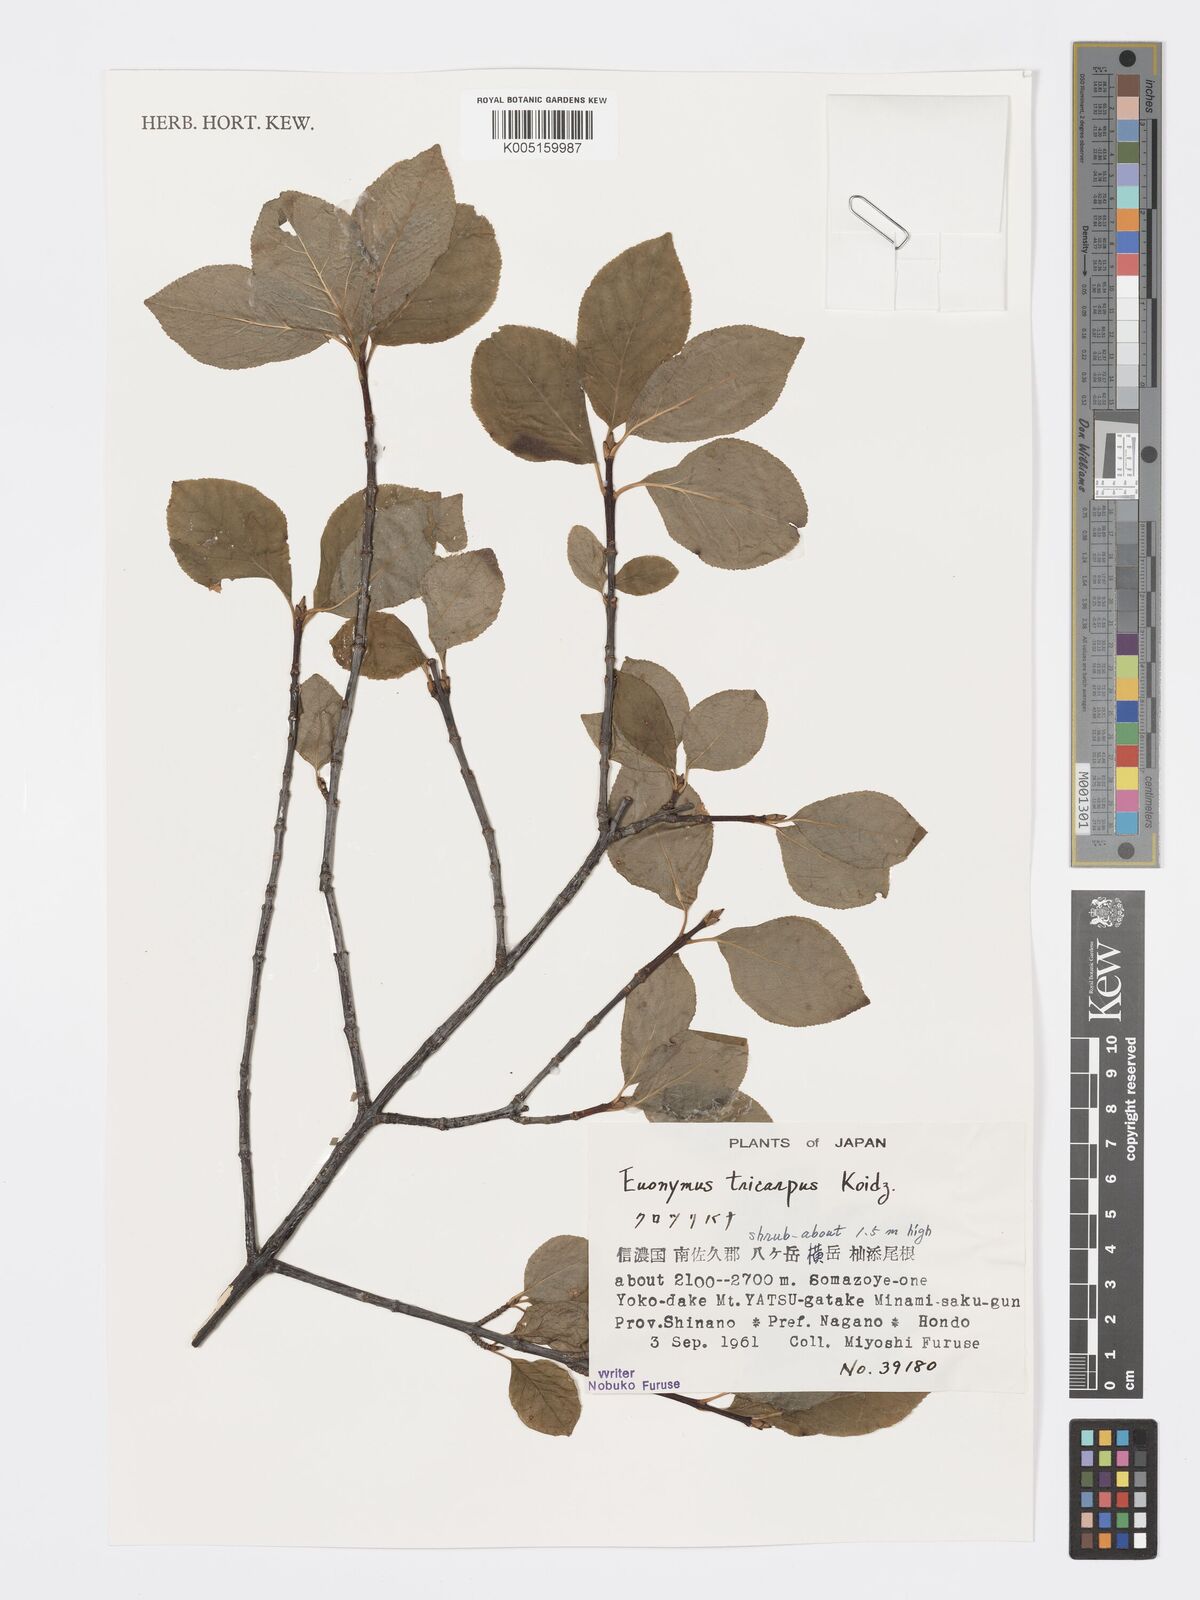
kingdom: Plantae
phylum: Tracheophyta
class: Magnoliopsida
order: Celastrales
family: Celastraceae
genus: Euonymus
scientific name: Euonymus sachalinensis
